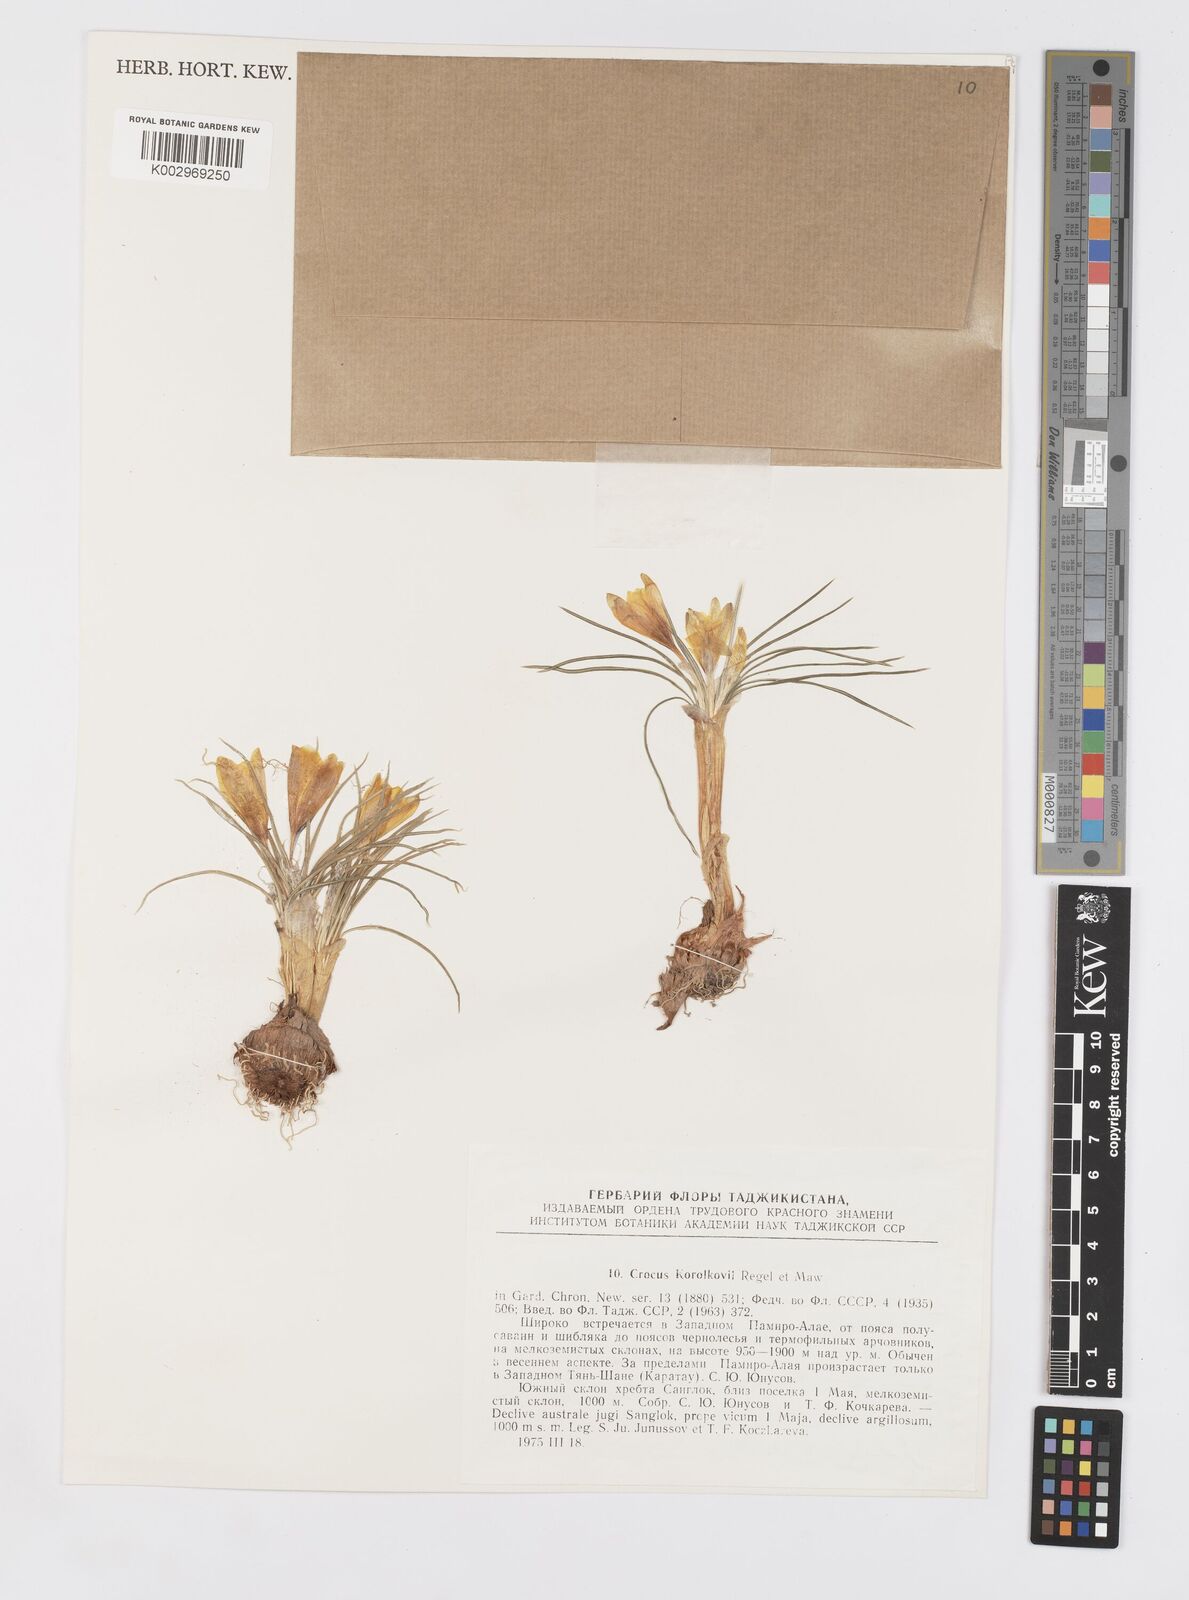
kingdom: Plantae
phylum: Tracheophyta
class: Liliopsida
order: Asparagales
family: Iridaceae
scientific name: Iridaceae
